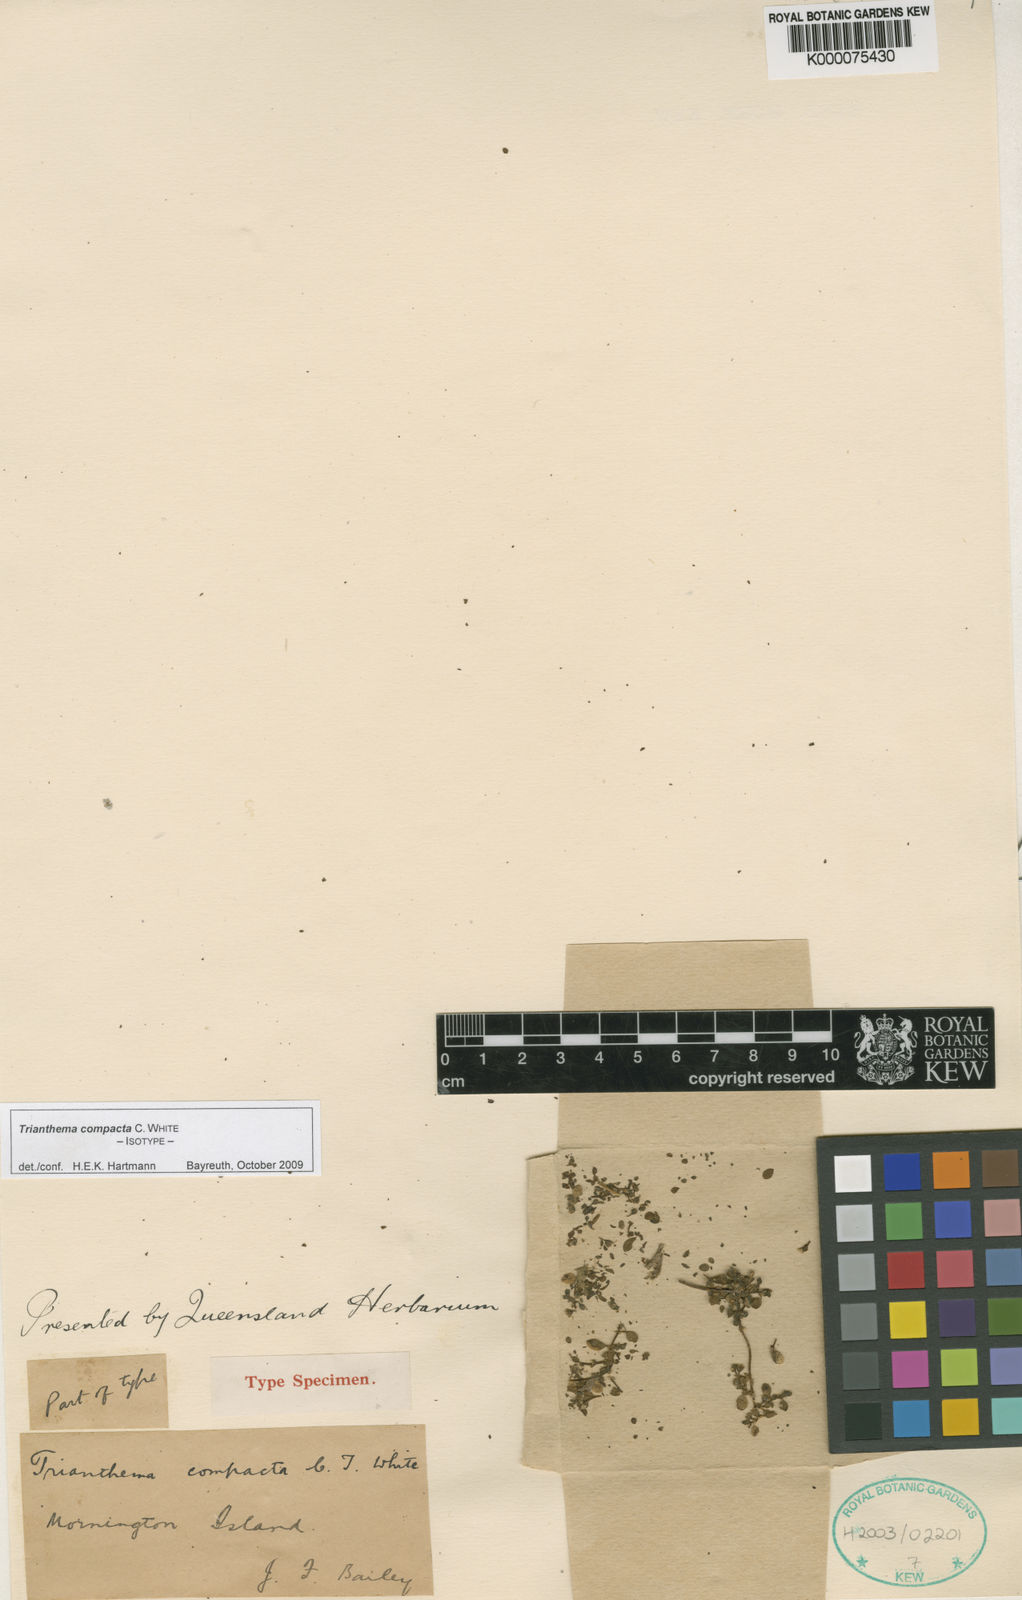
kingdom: Plantae
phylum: Tracheophyta
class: Magnoliopsida
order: Caryophyllales
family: Aizoaceae
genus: Trianthema
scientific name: Trianthema compactum
